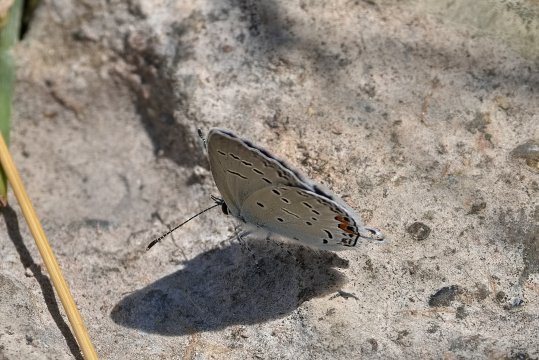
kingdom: Animalia
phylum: Arthropoda
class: Insecta
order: Lepidoptera
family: Lycaenidae
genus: Elkalyce
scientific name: Elkalyce comyntas
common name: Eastern Tailed-Blue
